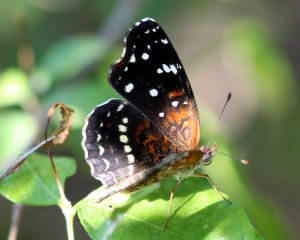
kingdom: Animalia
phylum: Arthropoda
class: Insecta
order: Lepidoptera
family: Nymphalidae
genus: Anthanassa
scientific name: Anthanassa texana
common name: Texan Crescent
